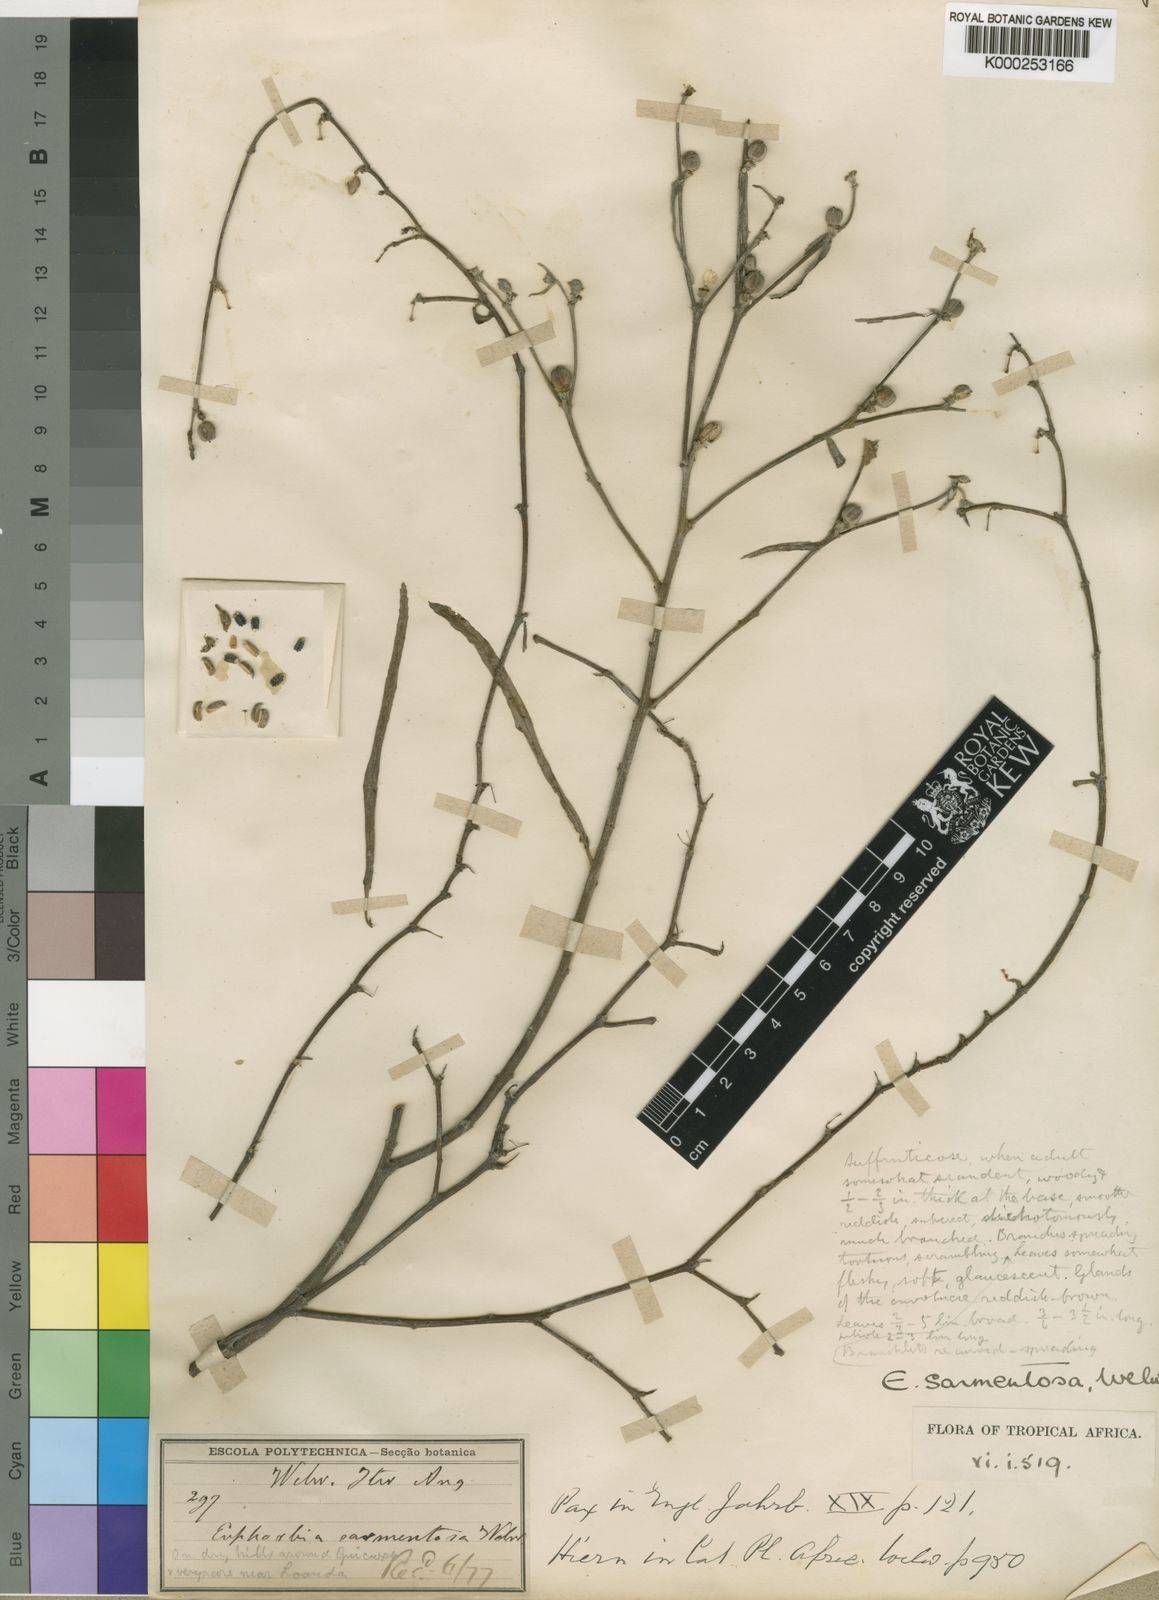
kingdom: Plantae
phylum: Tracheophyta
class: Magnoliopsida
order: Malpighiales
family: Euphorbiaceae
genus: Euphorbia
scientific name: Euphorbia sarmentosa
